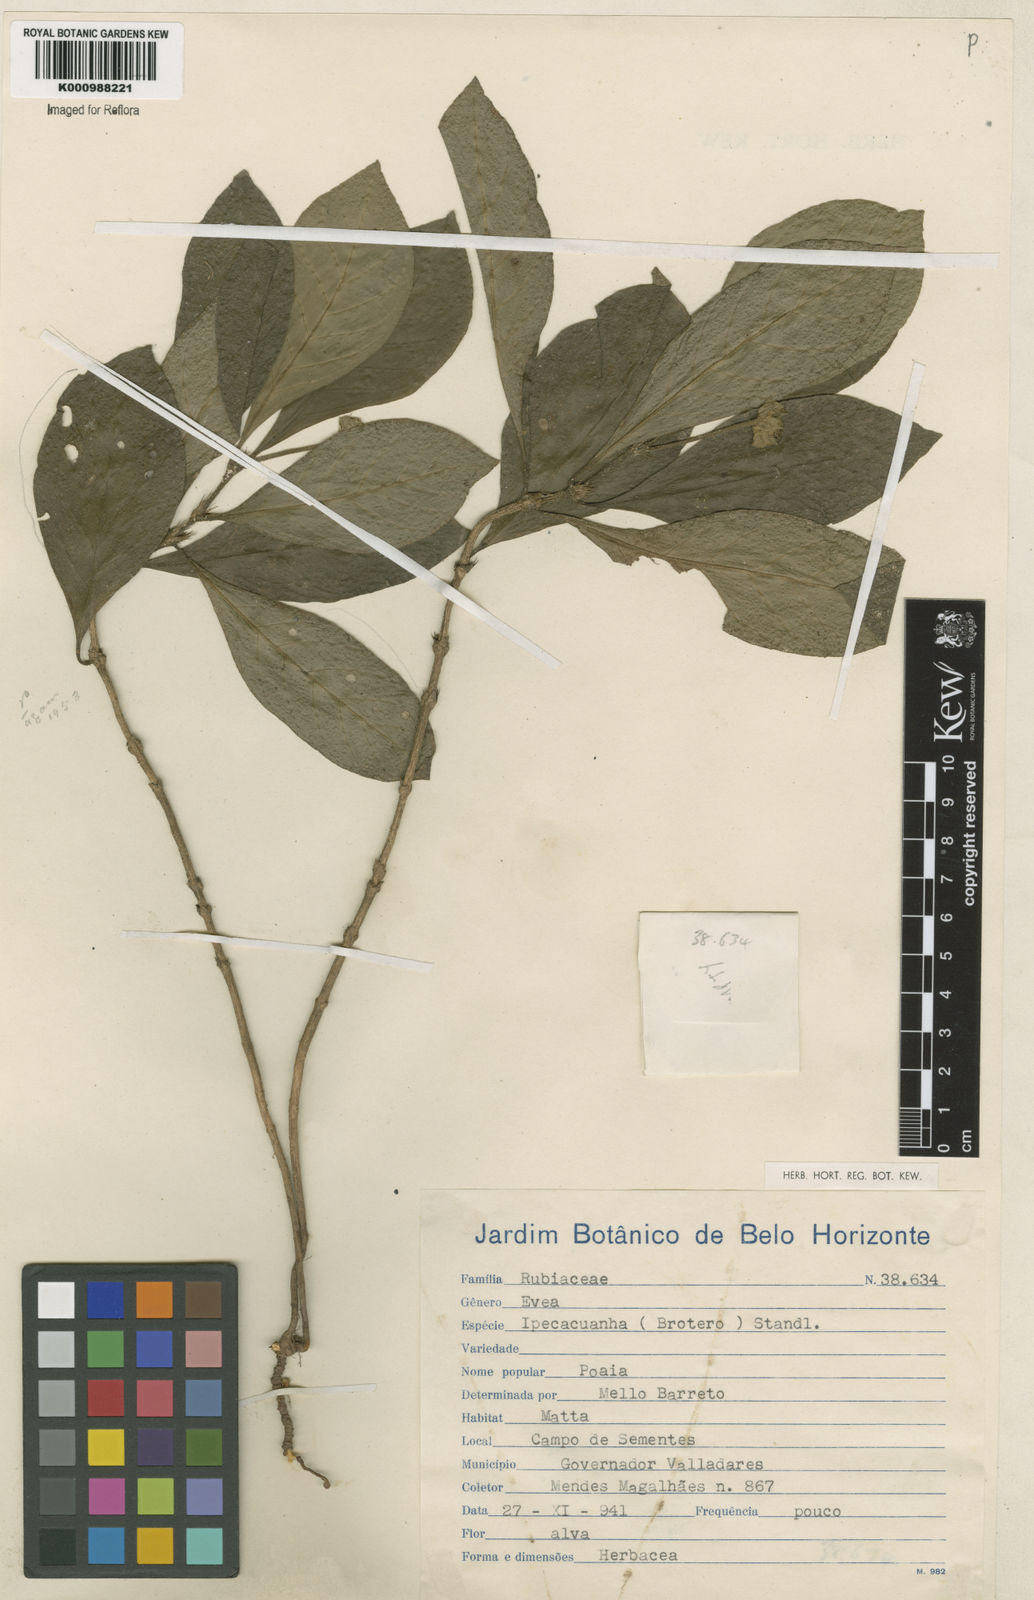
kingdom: Plantae
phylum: Tracheophyta
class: Magnoliopsida
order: Gentianales
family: Rubiaceae
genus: Carapichea
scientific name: Carapichea ipecacuanha
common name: Ipecac
